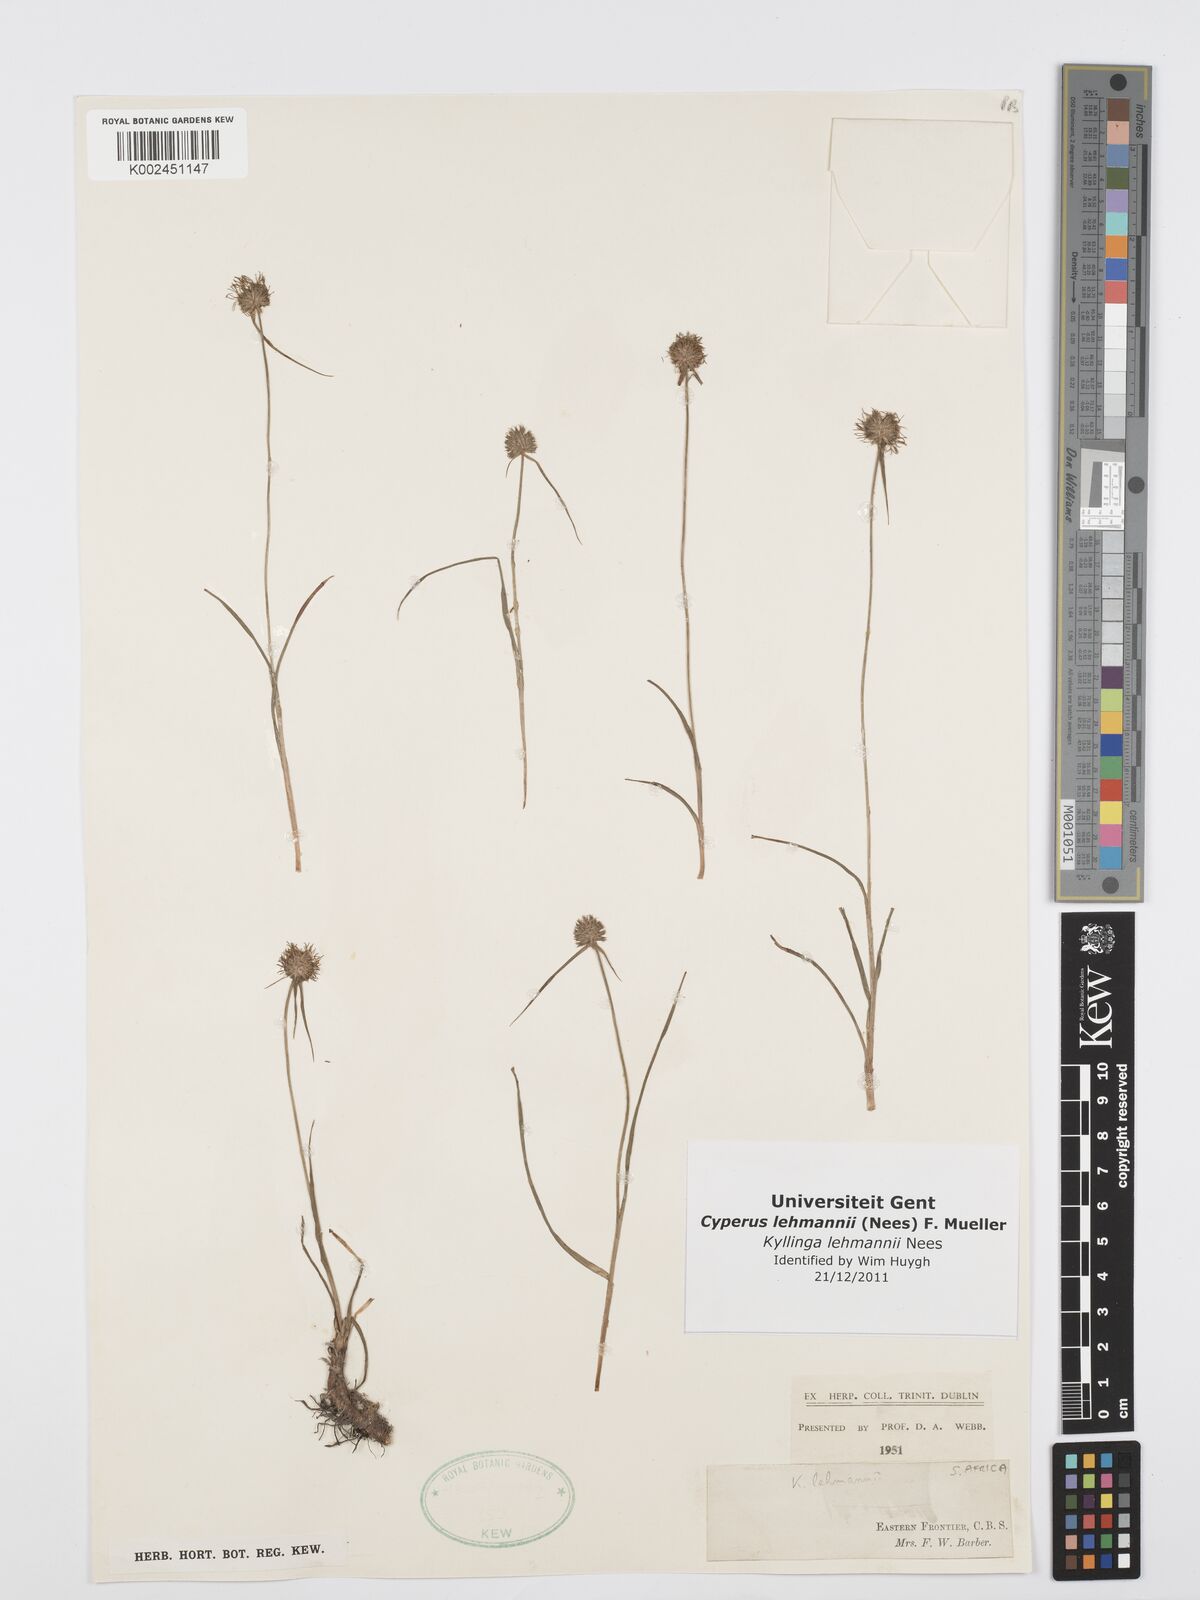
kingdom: Plantae
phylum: Tracheophyta
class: Liliopsida
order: Poales
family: Cyperaceae
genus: Cyperus
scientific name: Cyperus lehmannii
